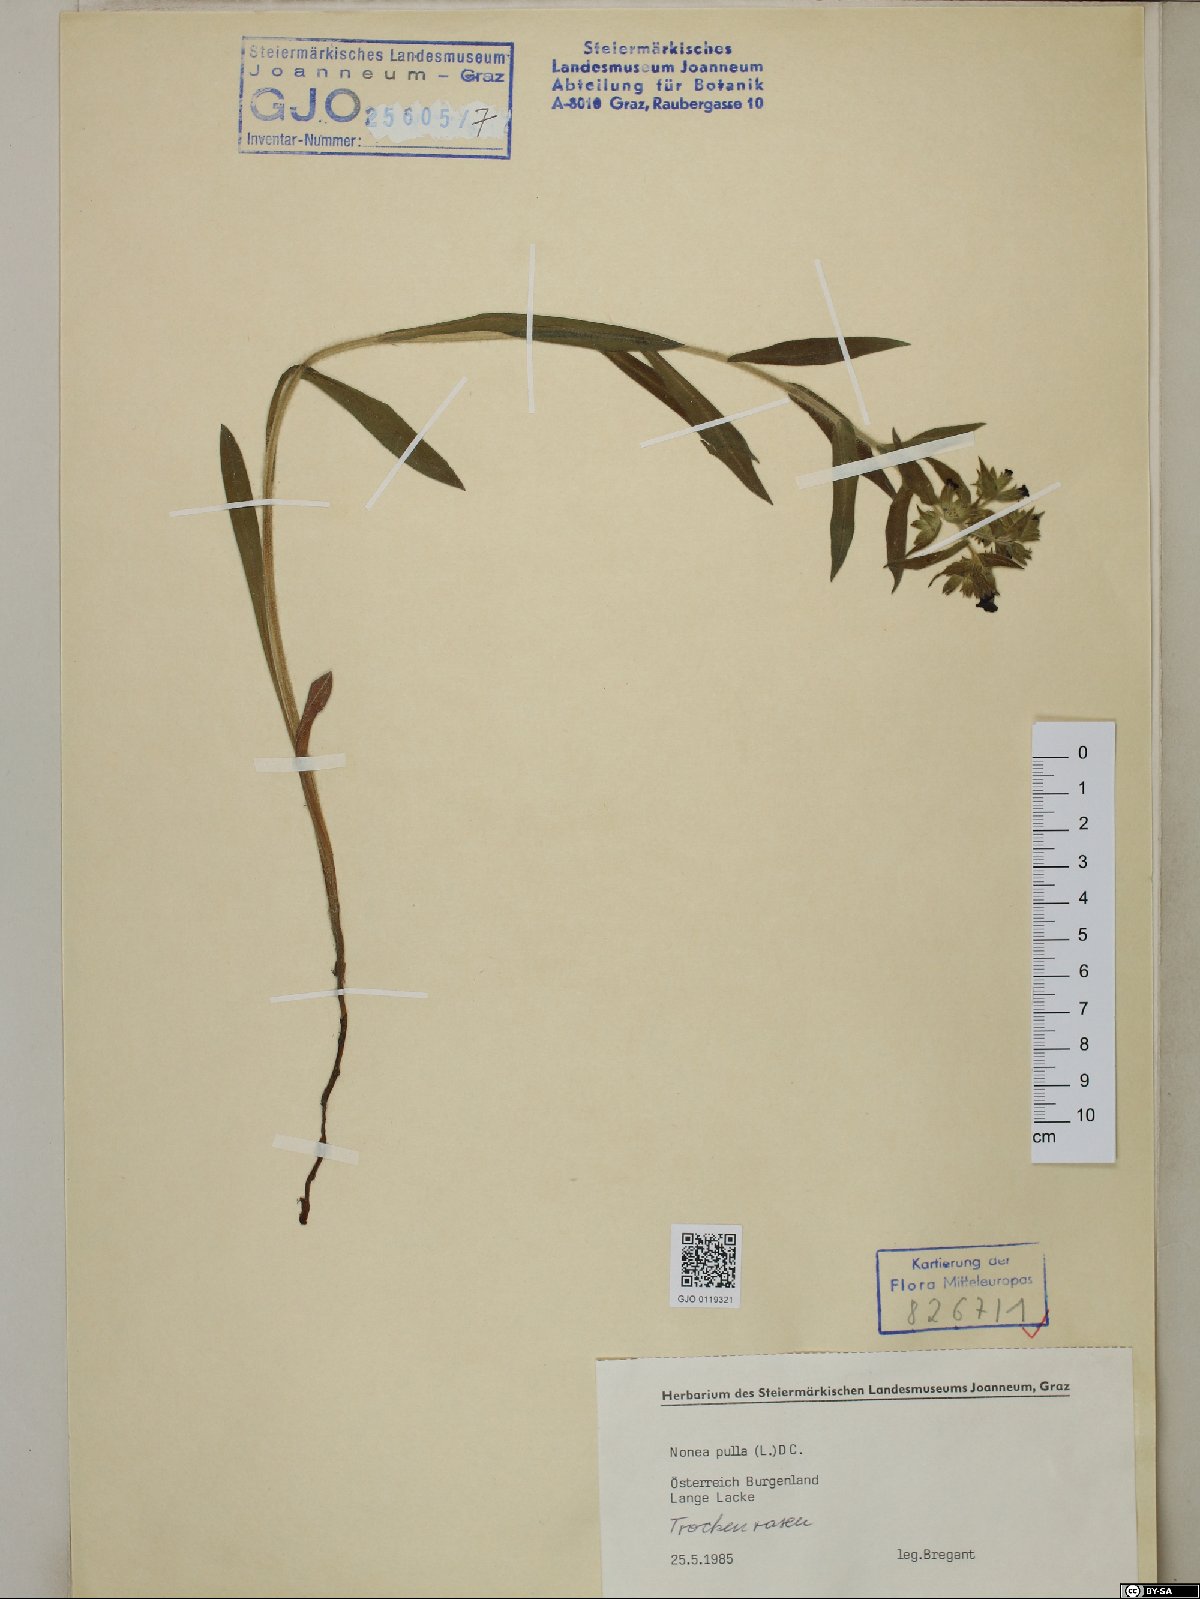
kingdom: Plantae
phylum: Tracheophyta
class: Magnoliopsida
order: Boraginales
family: Boraginaceae
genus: Nonea
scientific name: Nonea pulla
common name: Brown nonea
